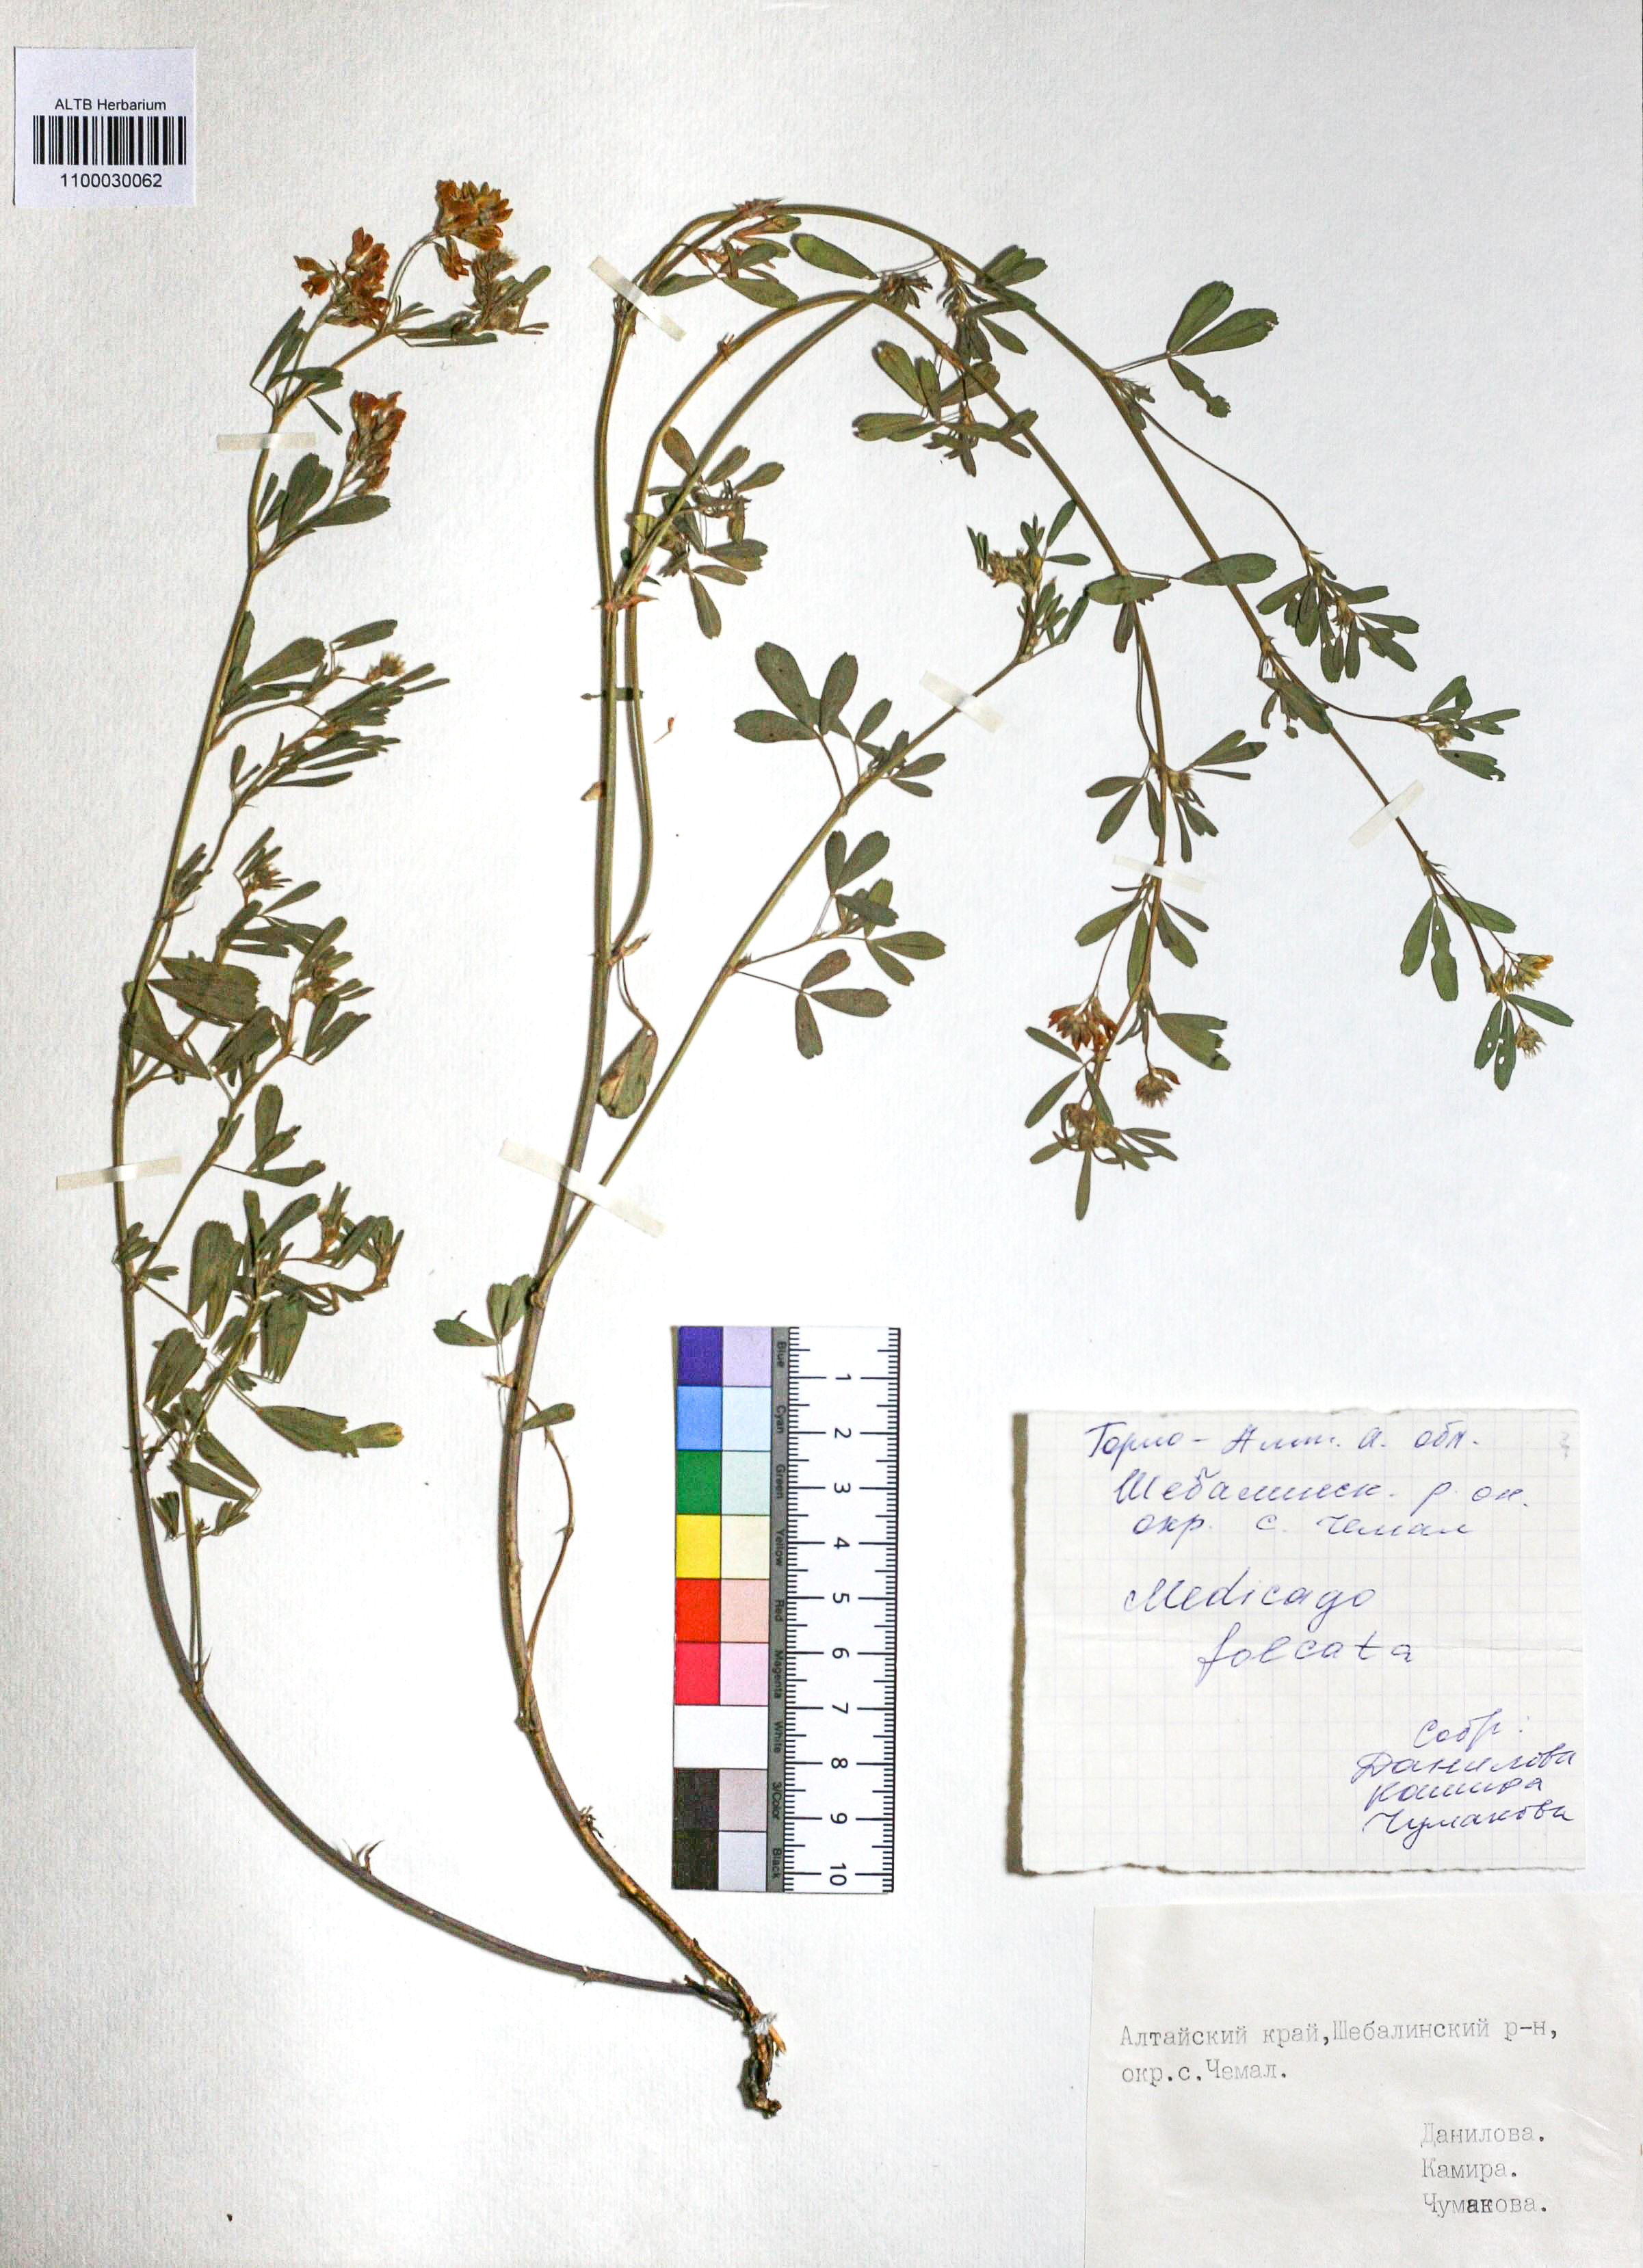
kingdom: Plantae
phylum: Tracheophyta
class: Magnoliopsida
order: Fabales
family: Fabaceae
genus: Medicago
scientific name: Medicago falcata
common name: Sickle medick
